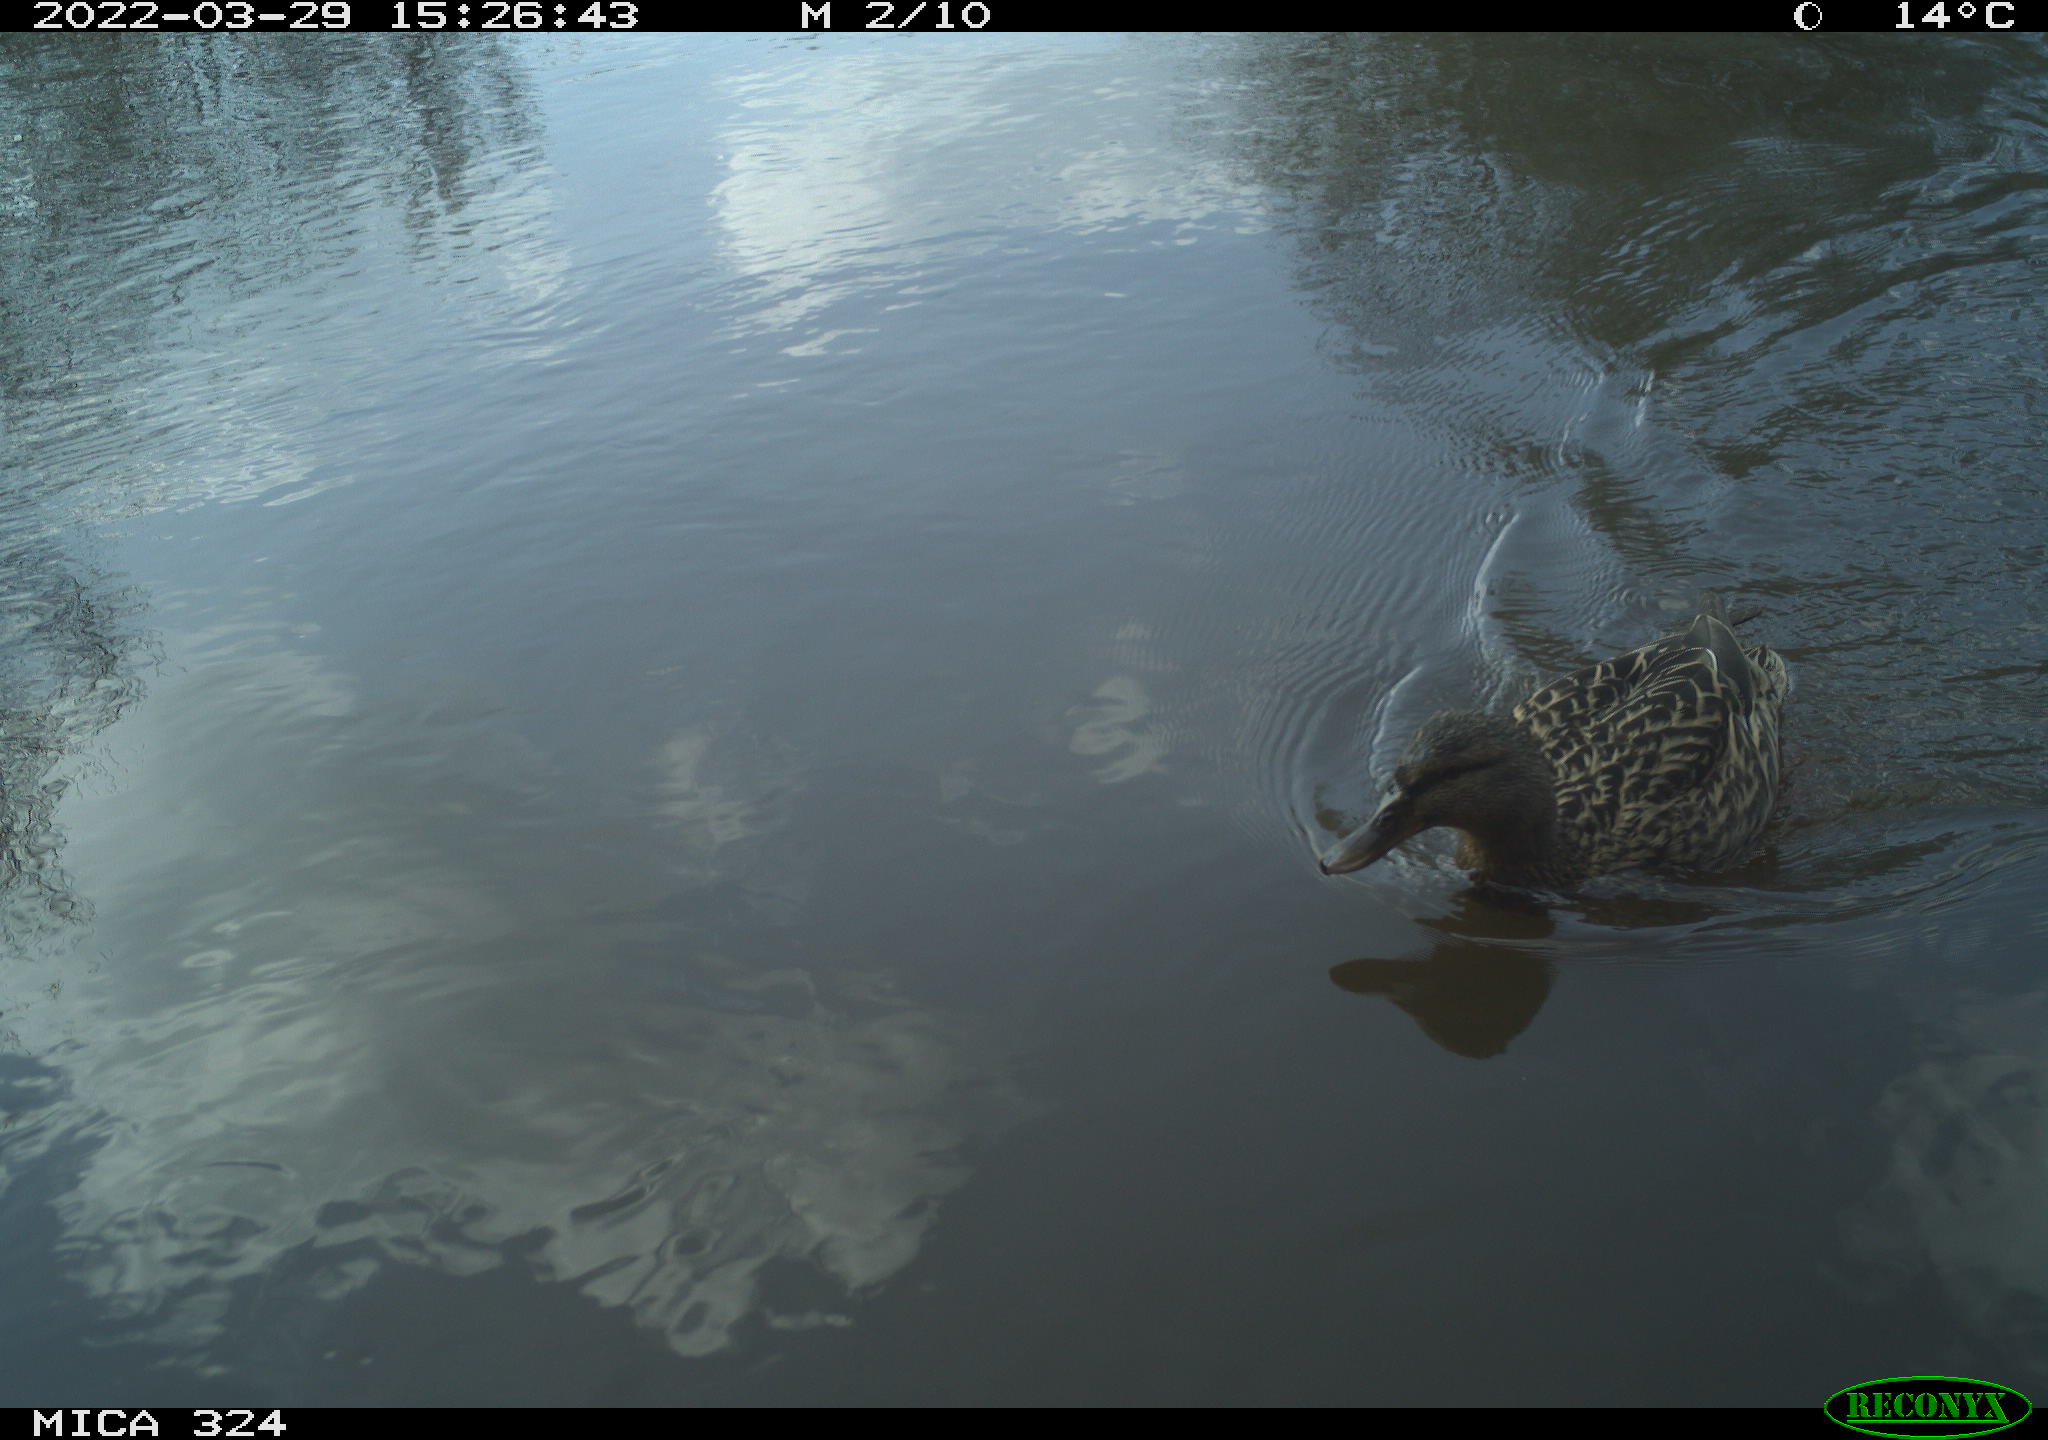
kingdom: Animalia
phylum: Chordata
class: Aves
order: Anseriformes
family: Anatidae
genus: Anas
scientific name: Anas platyrhynchos
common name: Mallard
